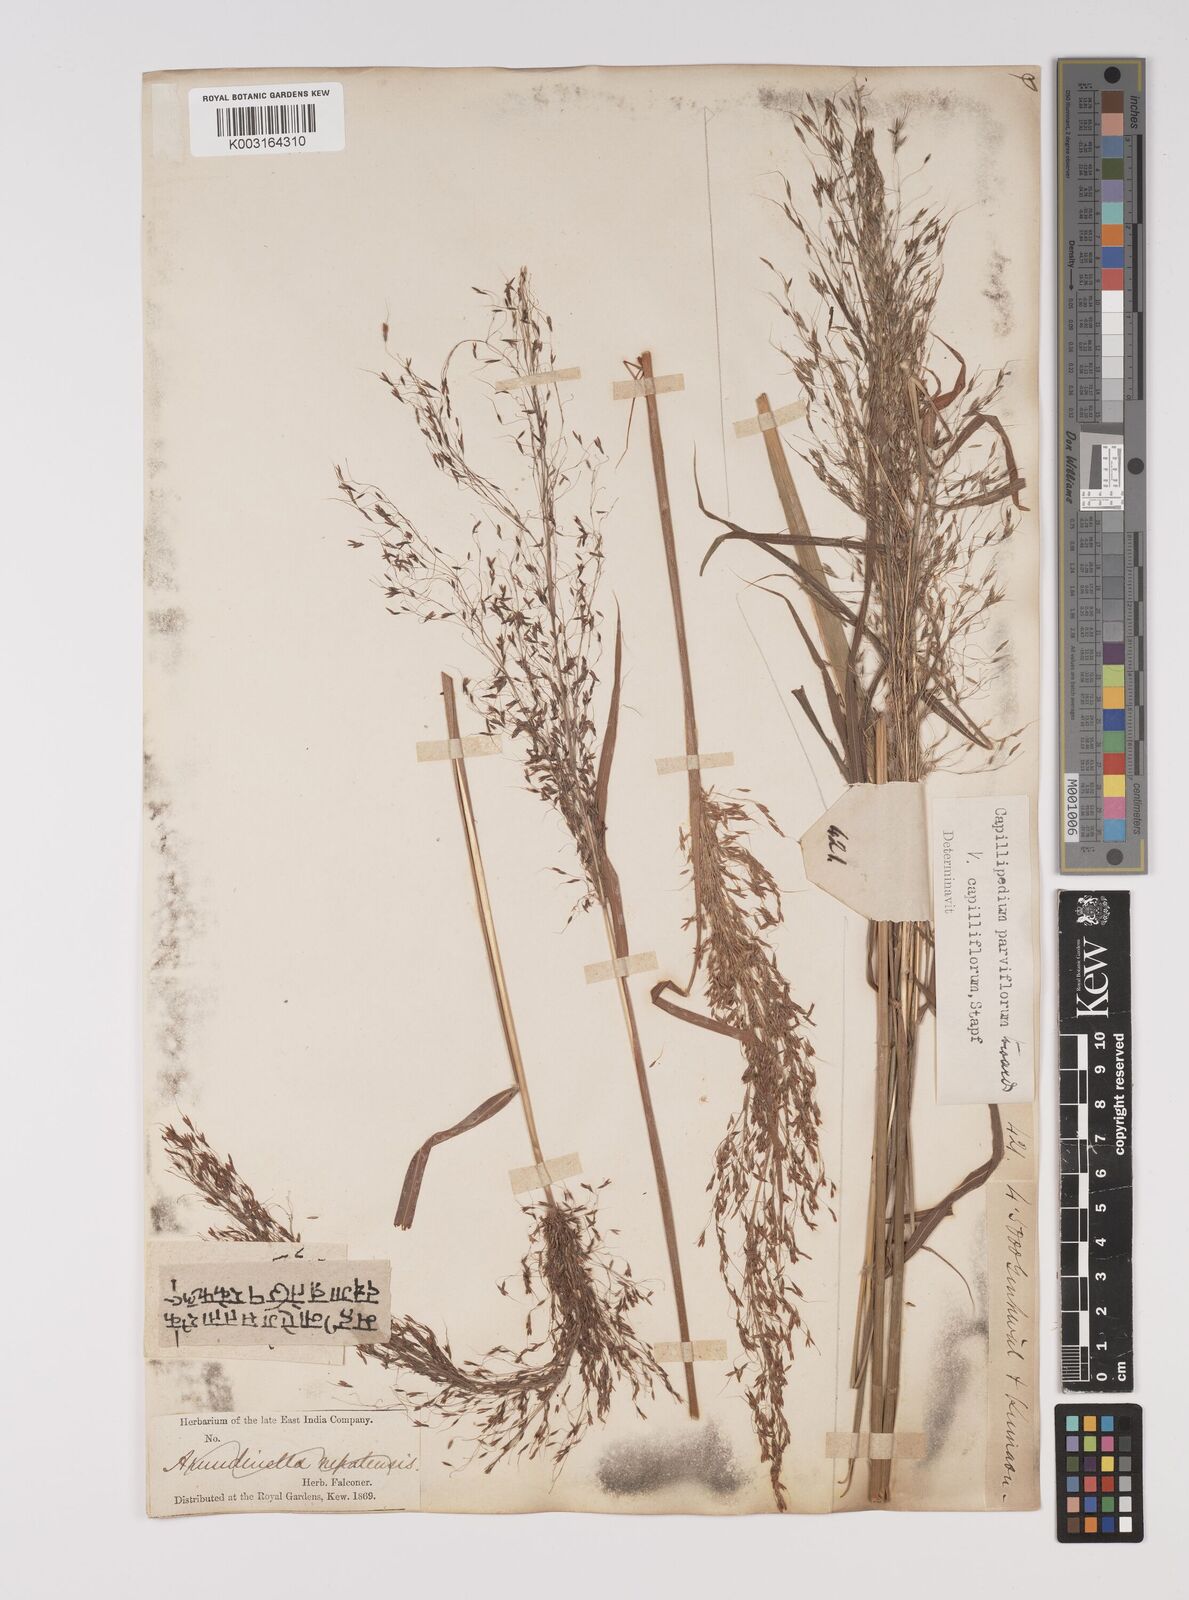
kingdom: Plantae
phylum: Tracheophyta
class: Liliopsida
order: Poales
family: Poaceae
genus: Capillipedium
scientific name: Capillipedium parviflorum
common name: Golden-beard
